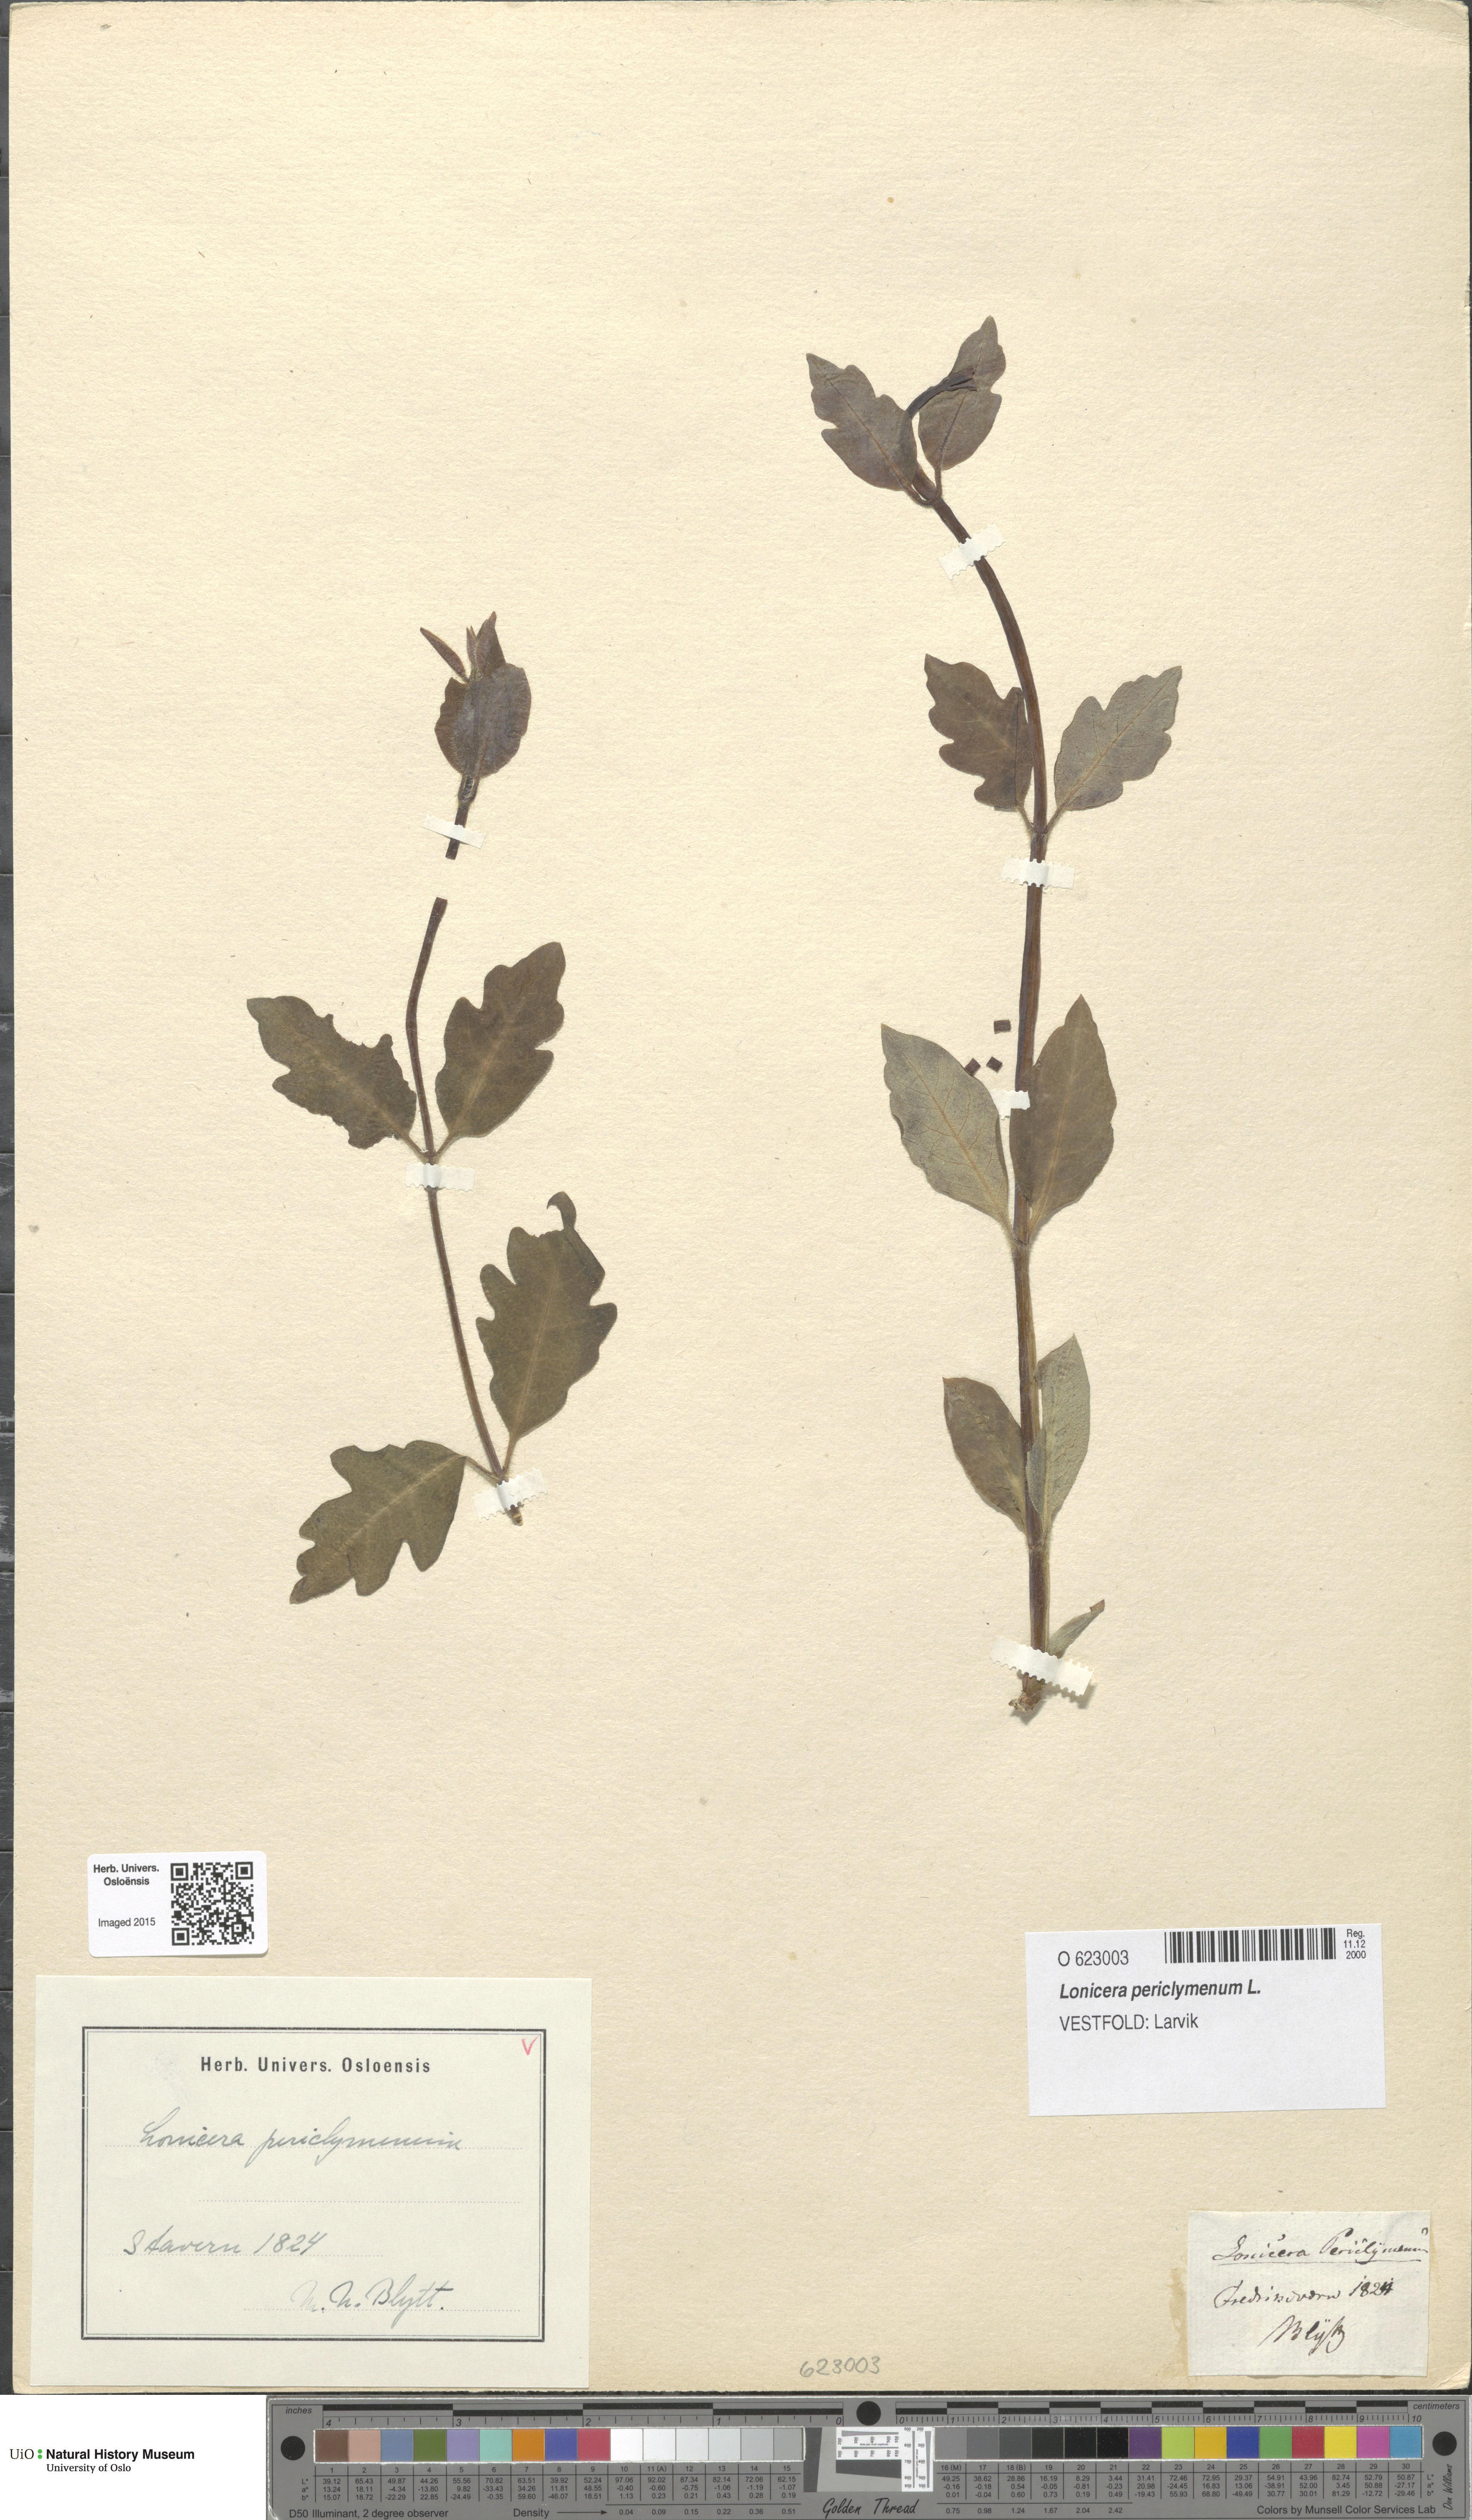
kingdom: Plantae
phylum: Tracheophyta
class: Magnoliopsida
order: Dipsacales
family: Caprifoliaceae
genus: Lonicera
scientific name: Lonicera periclymenum
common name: European honeysuckle
